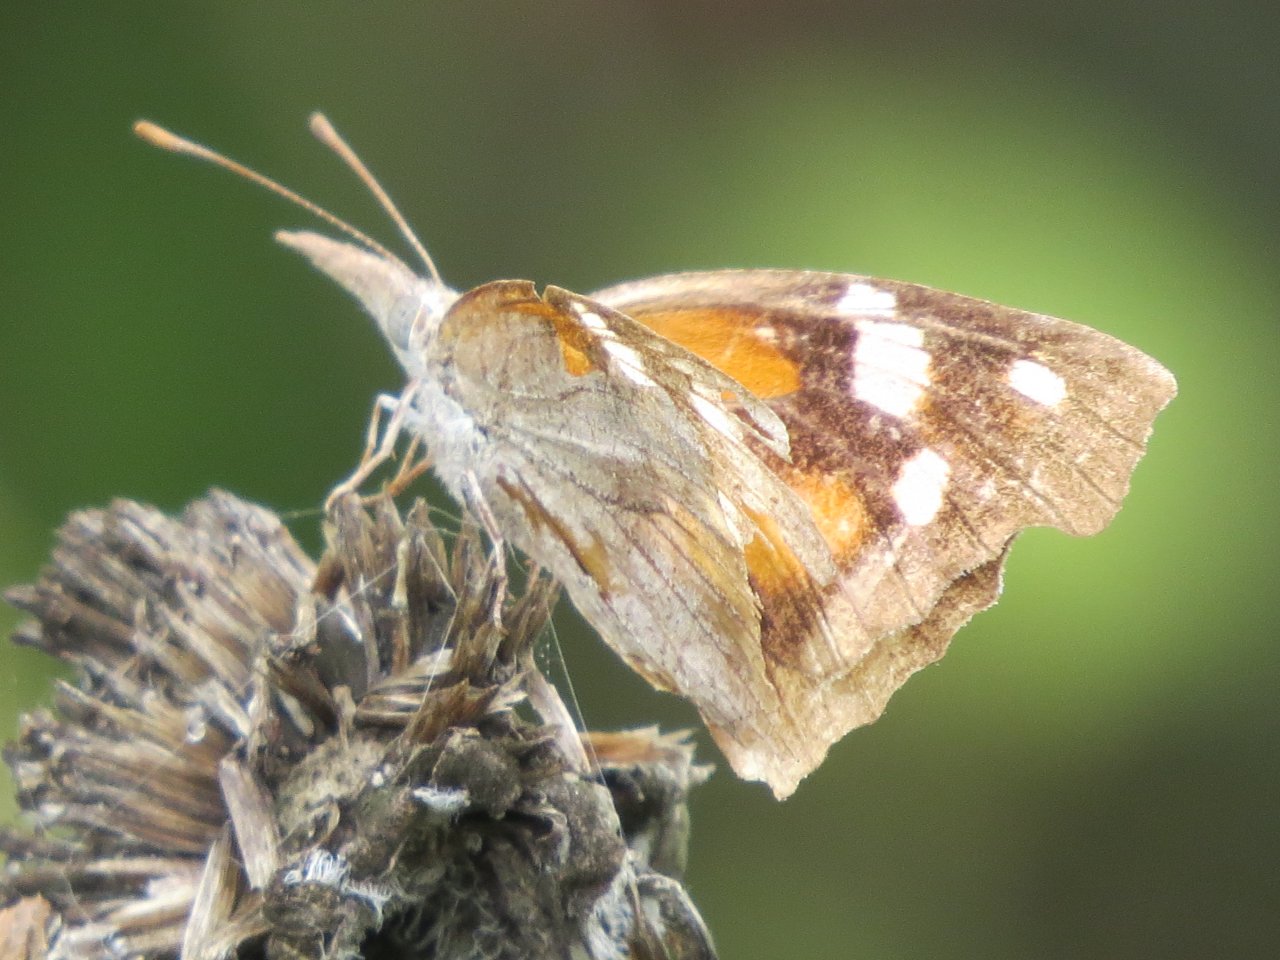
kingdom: Animalia
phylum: Arthropoda
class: Insecta
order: Lepidoptera
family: Nymphalidae
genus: Libytheana
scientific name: Libytheana carinenta
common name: American Snout
